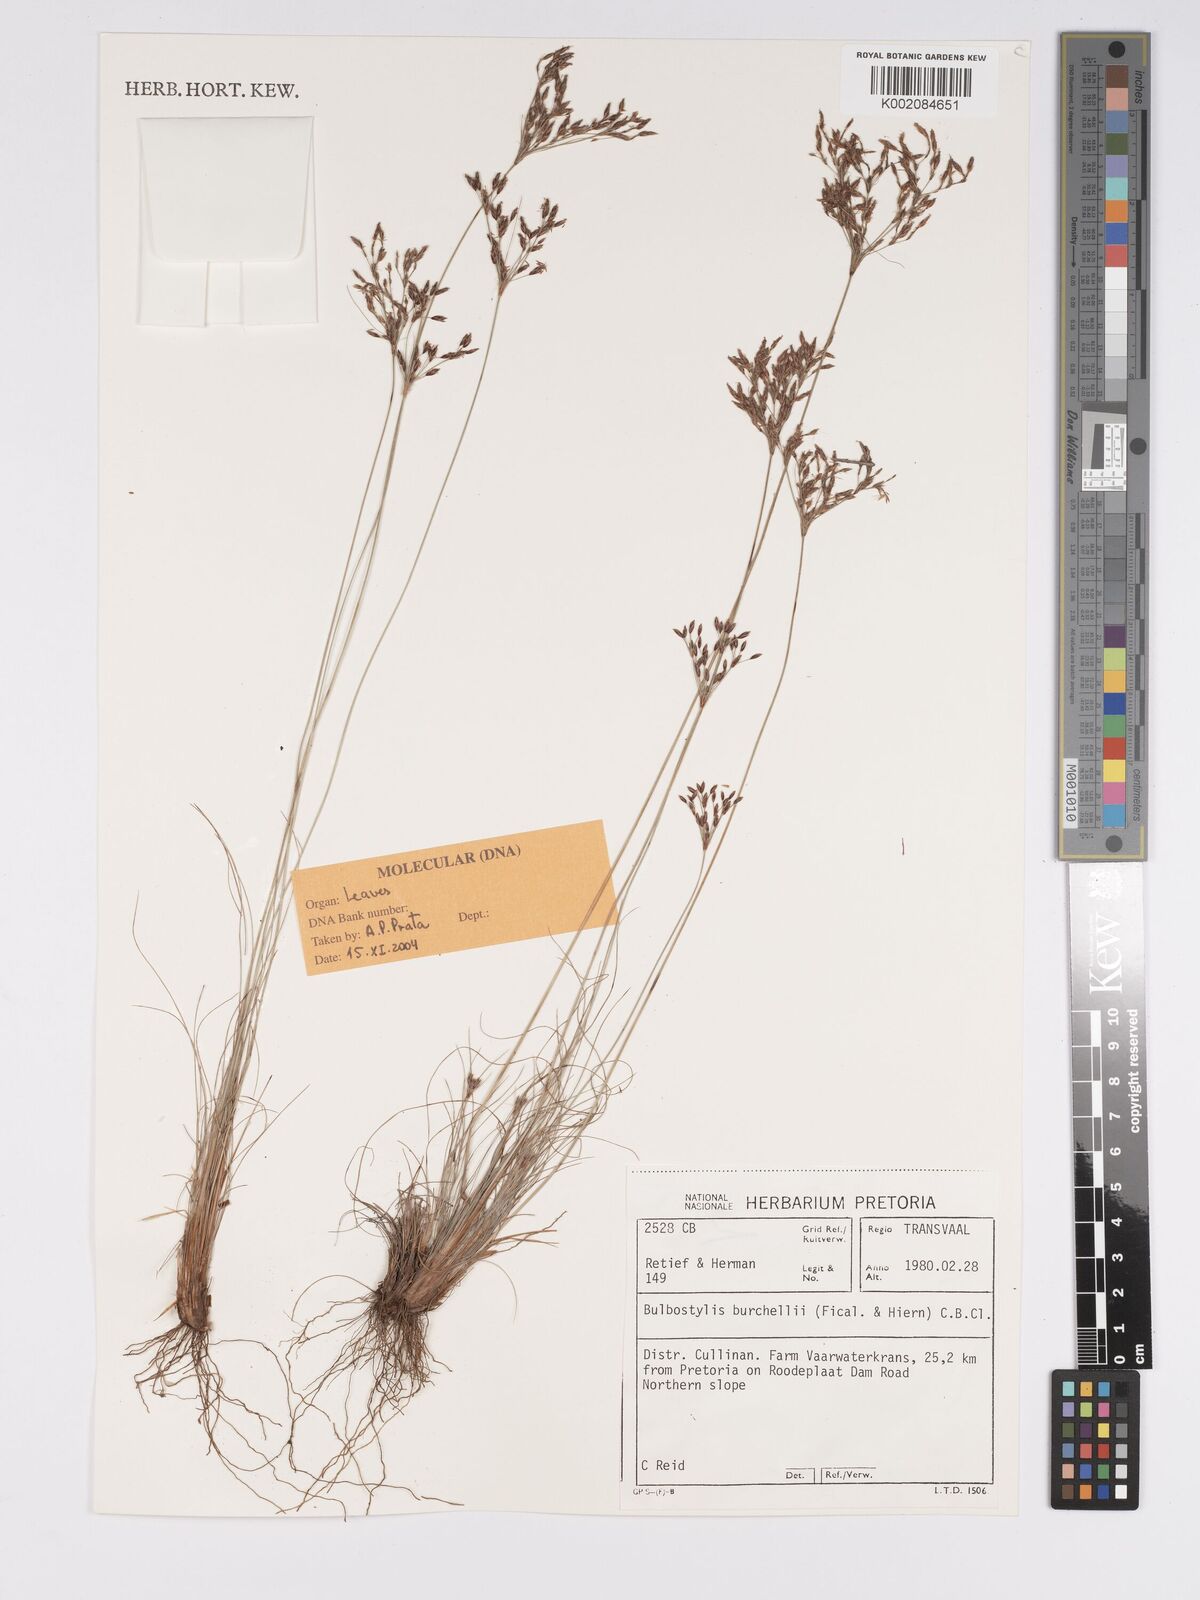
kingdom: Plantae
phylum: Tracheophyta
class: Liliopsida
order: Poales
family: Cyperaceae
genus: Bulbostylis
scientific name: Bulbostylis burchellii
